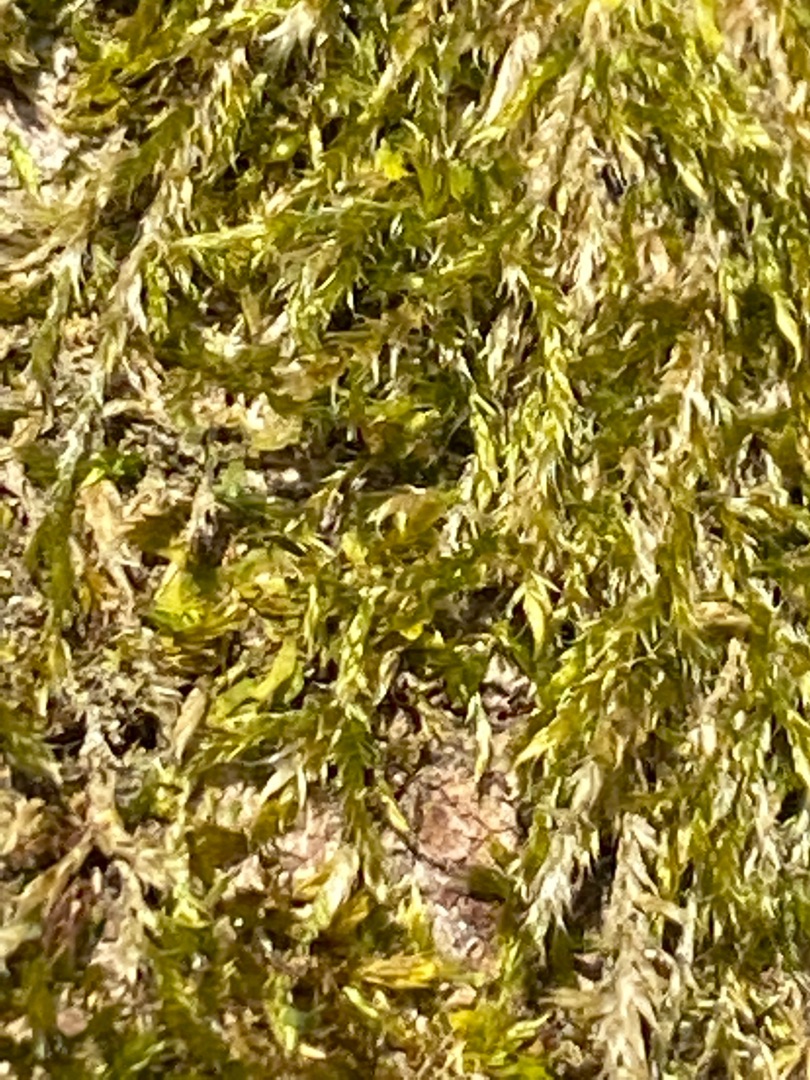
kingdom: Plantae
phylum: Bryophyta
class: Bryopsida
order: Hypnales
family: Hypnaceae
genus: Hypnum
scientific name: Hypnum cupressiforme
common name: Almindelig cypresmos
